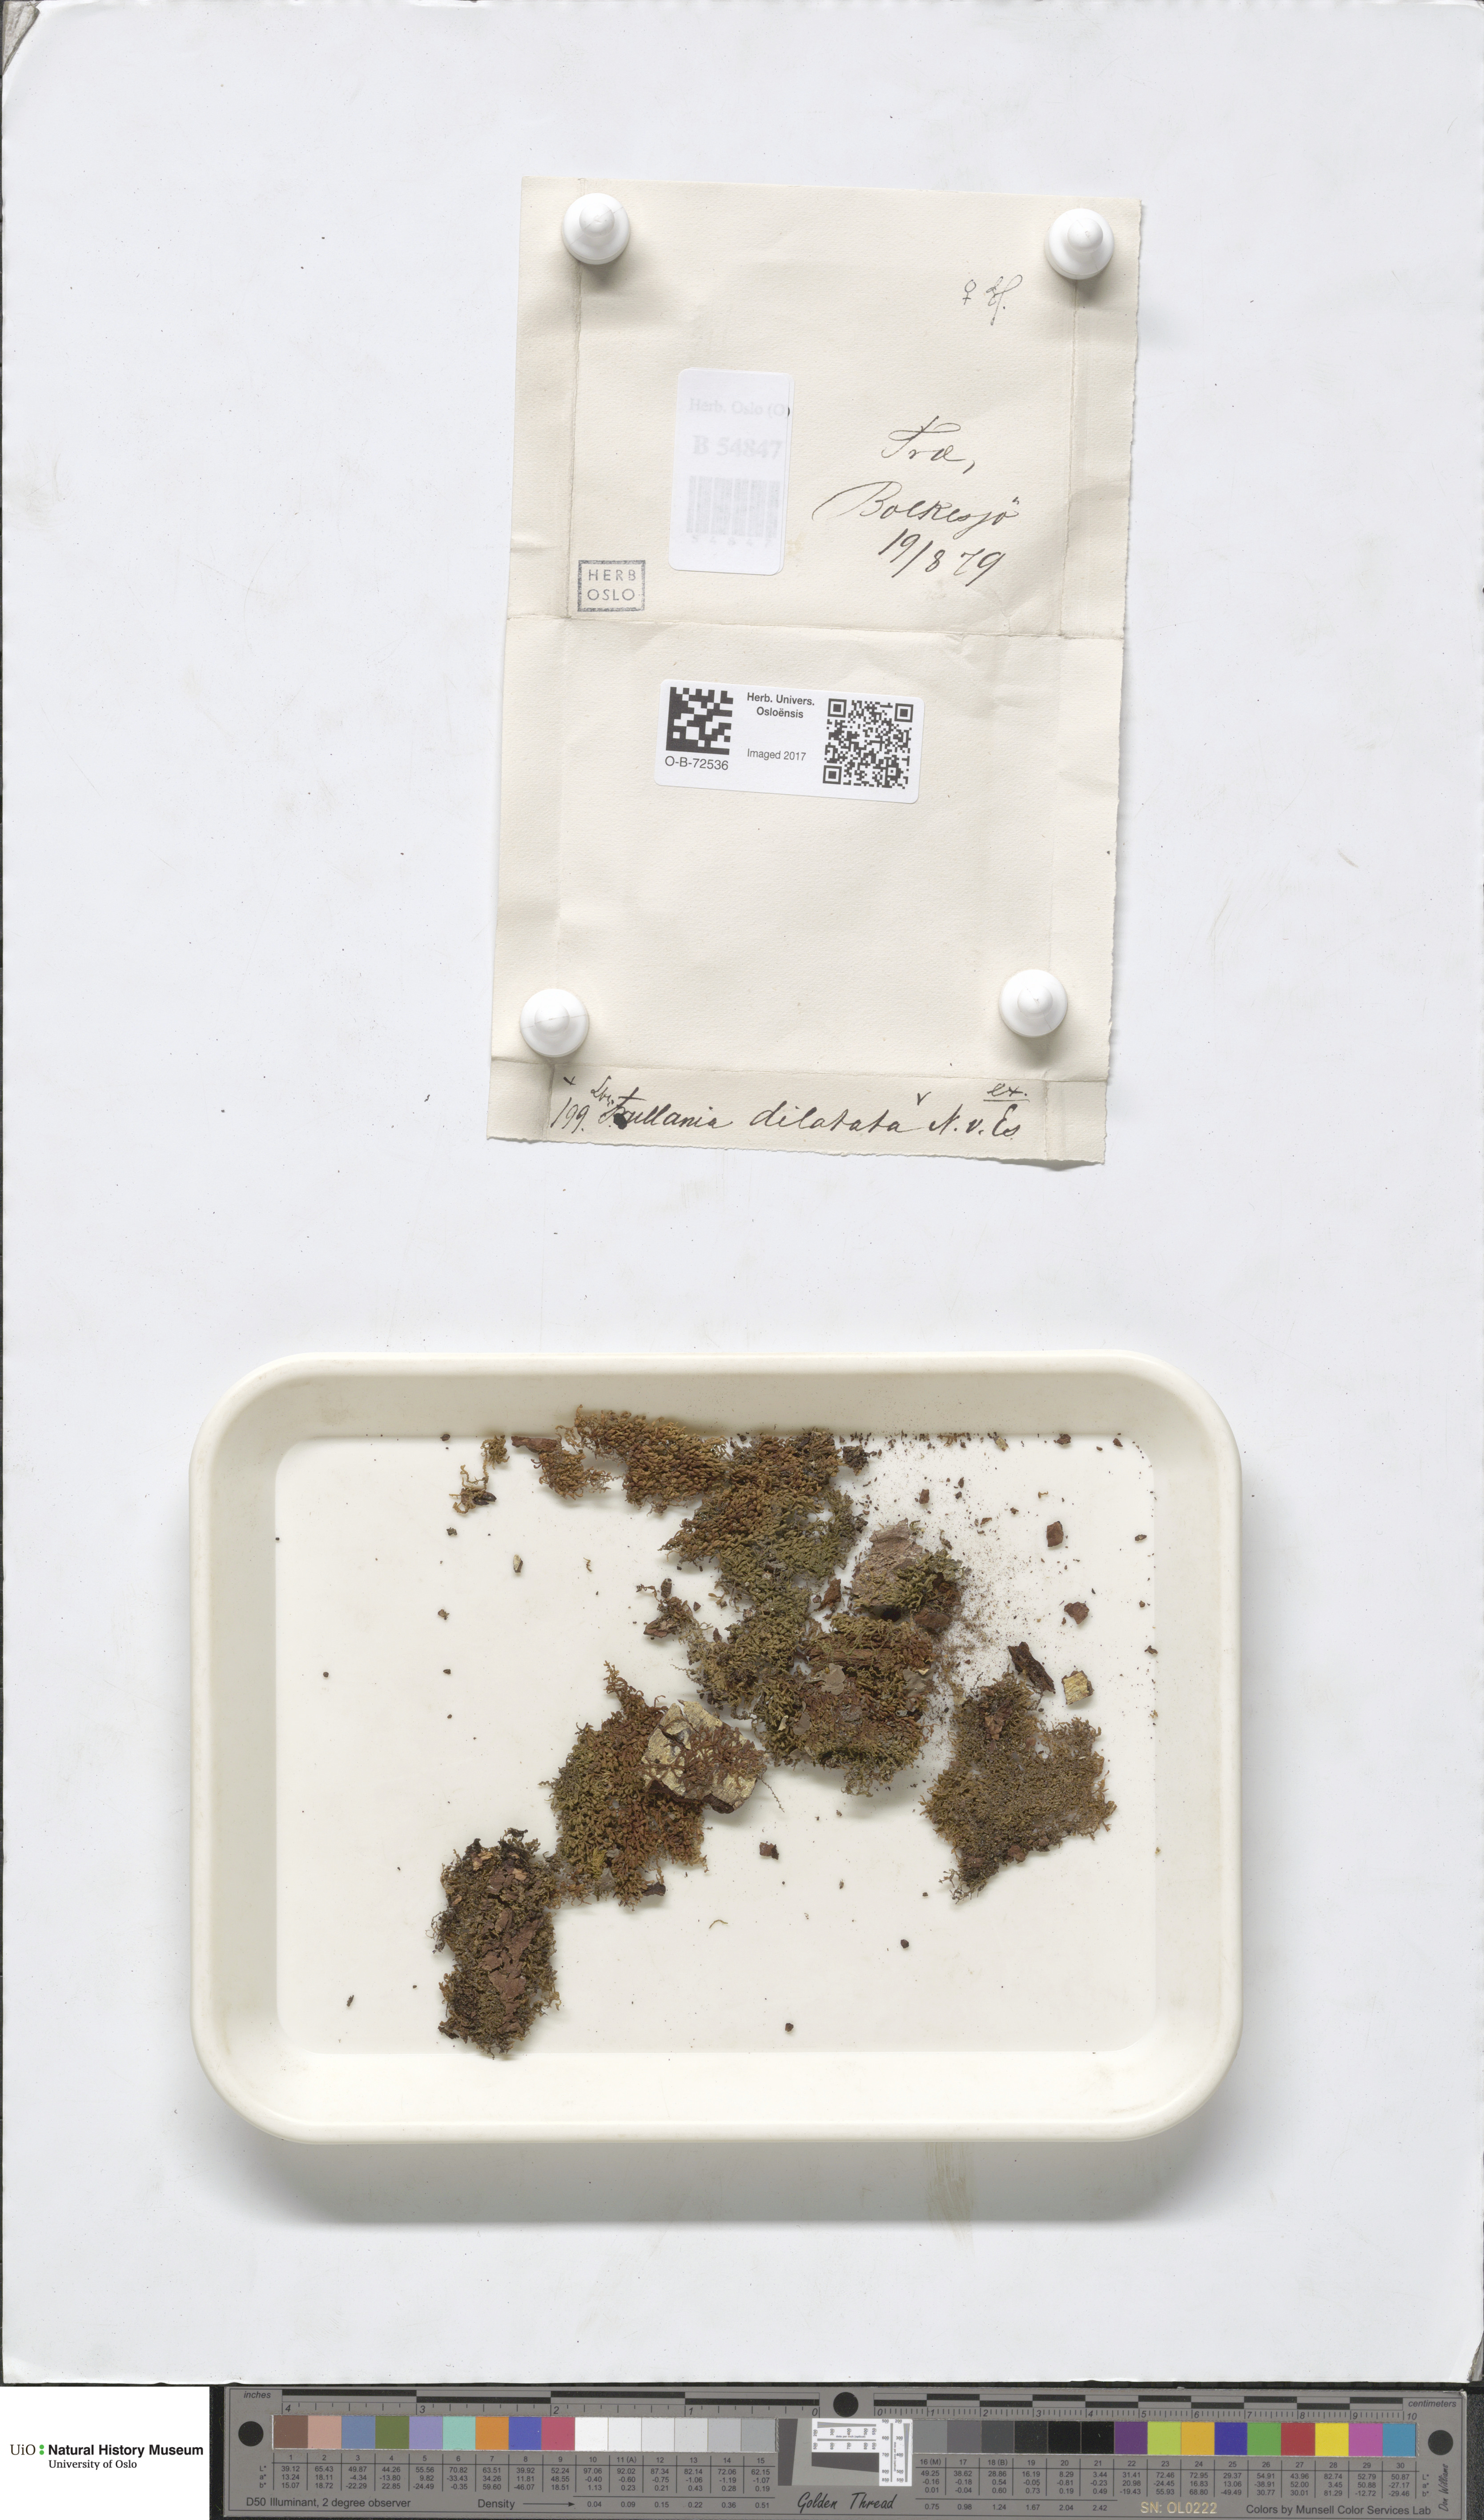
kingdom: Plantae
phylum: Marchantiophyta
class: Jungermanniopsida
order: Porellales
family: Frullaniaceae
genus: Frullania
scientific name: Frullania dilatata
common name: Dilated scalewort
